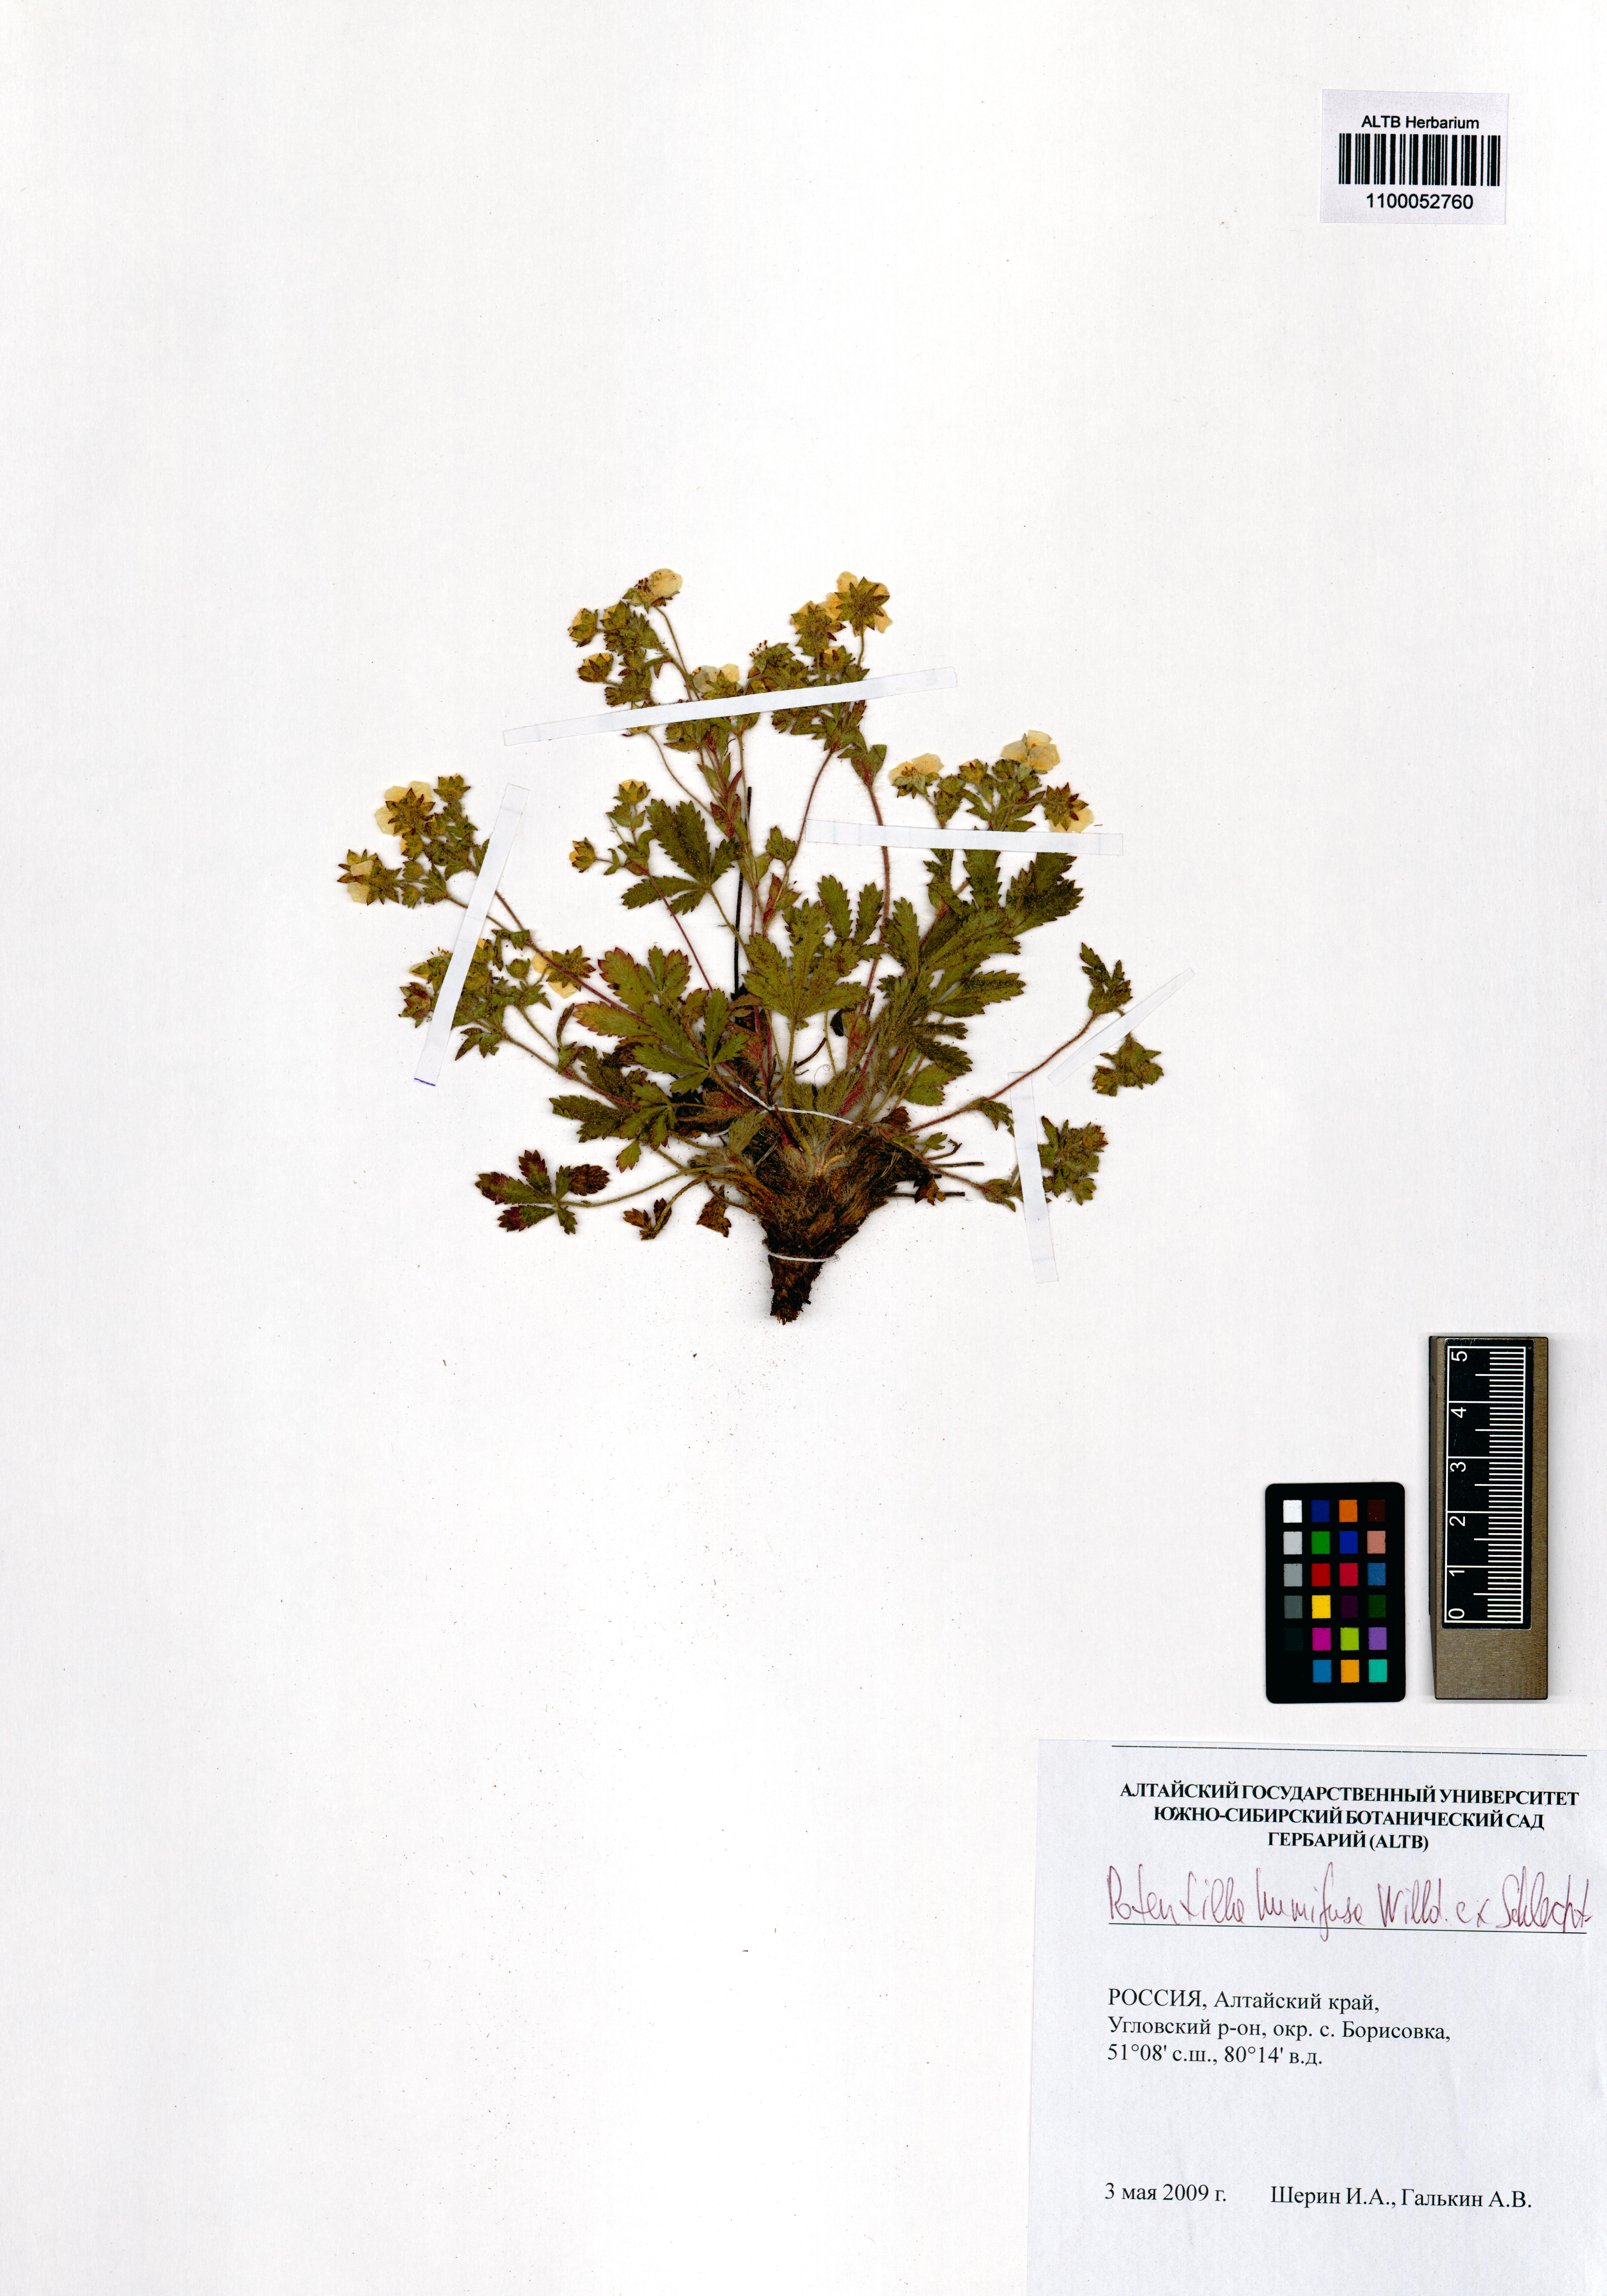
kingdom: Plantae
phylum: Tracheophyta
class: Magnoliopsida
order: Rosales
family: Rosaceae
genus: Potentilla
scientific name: Potentilla humifusa
